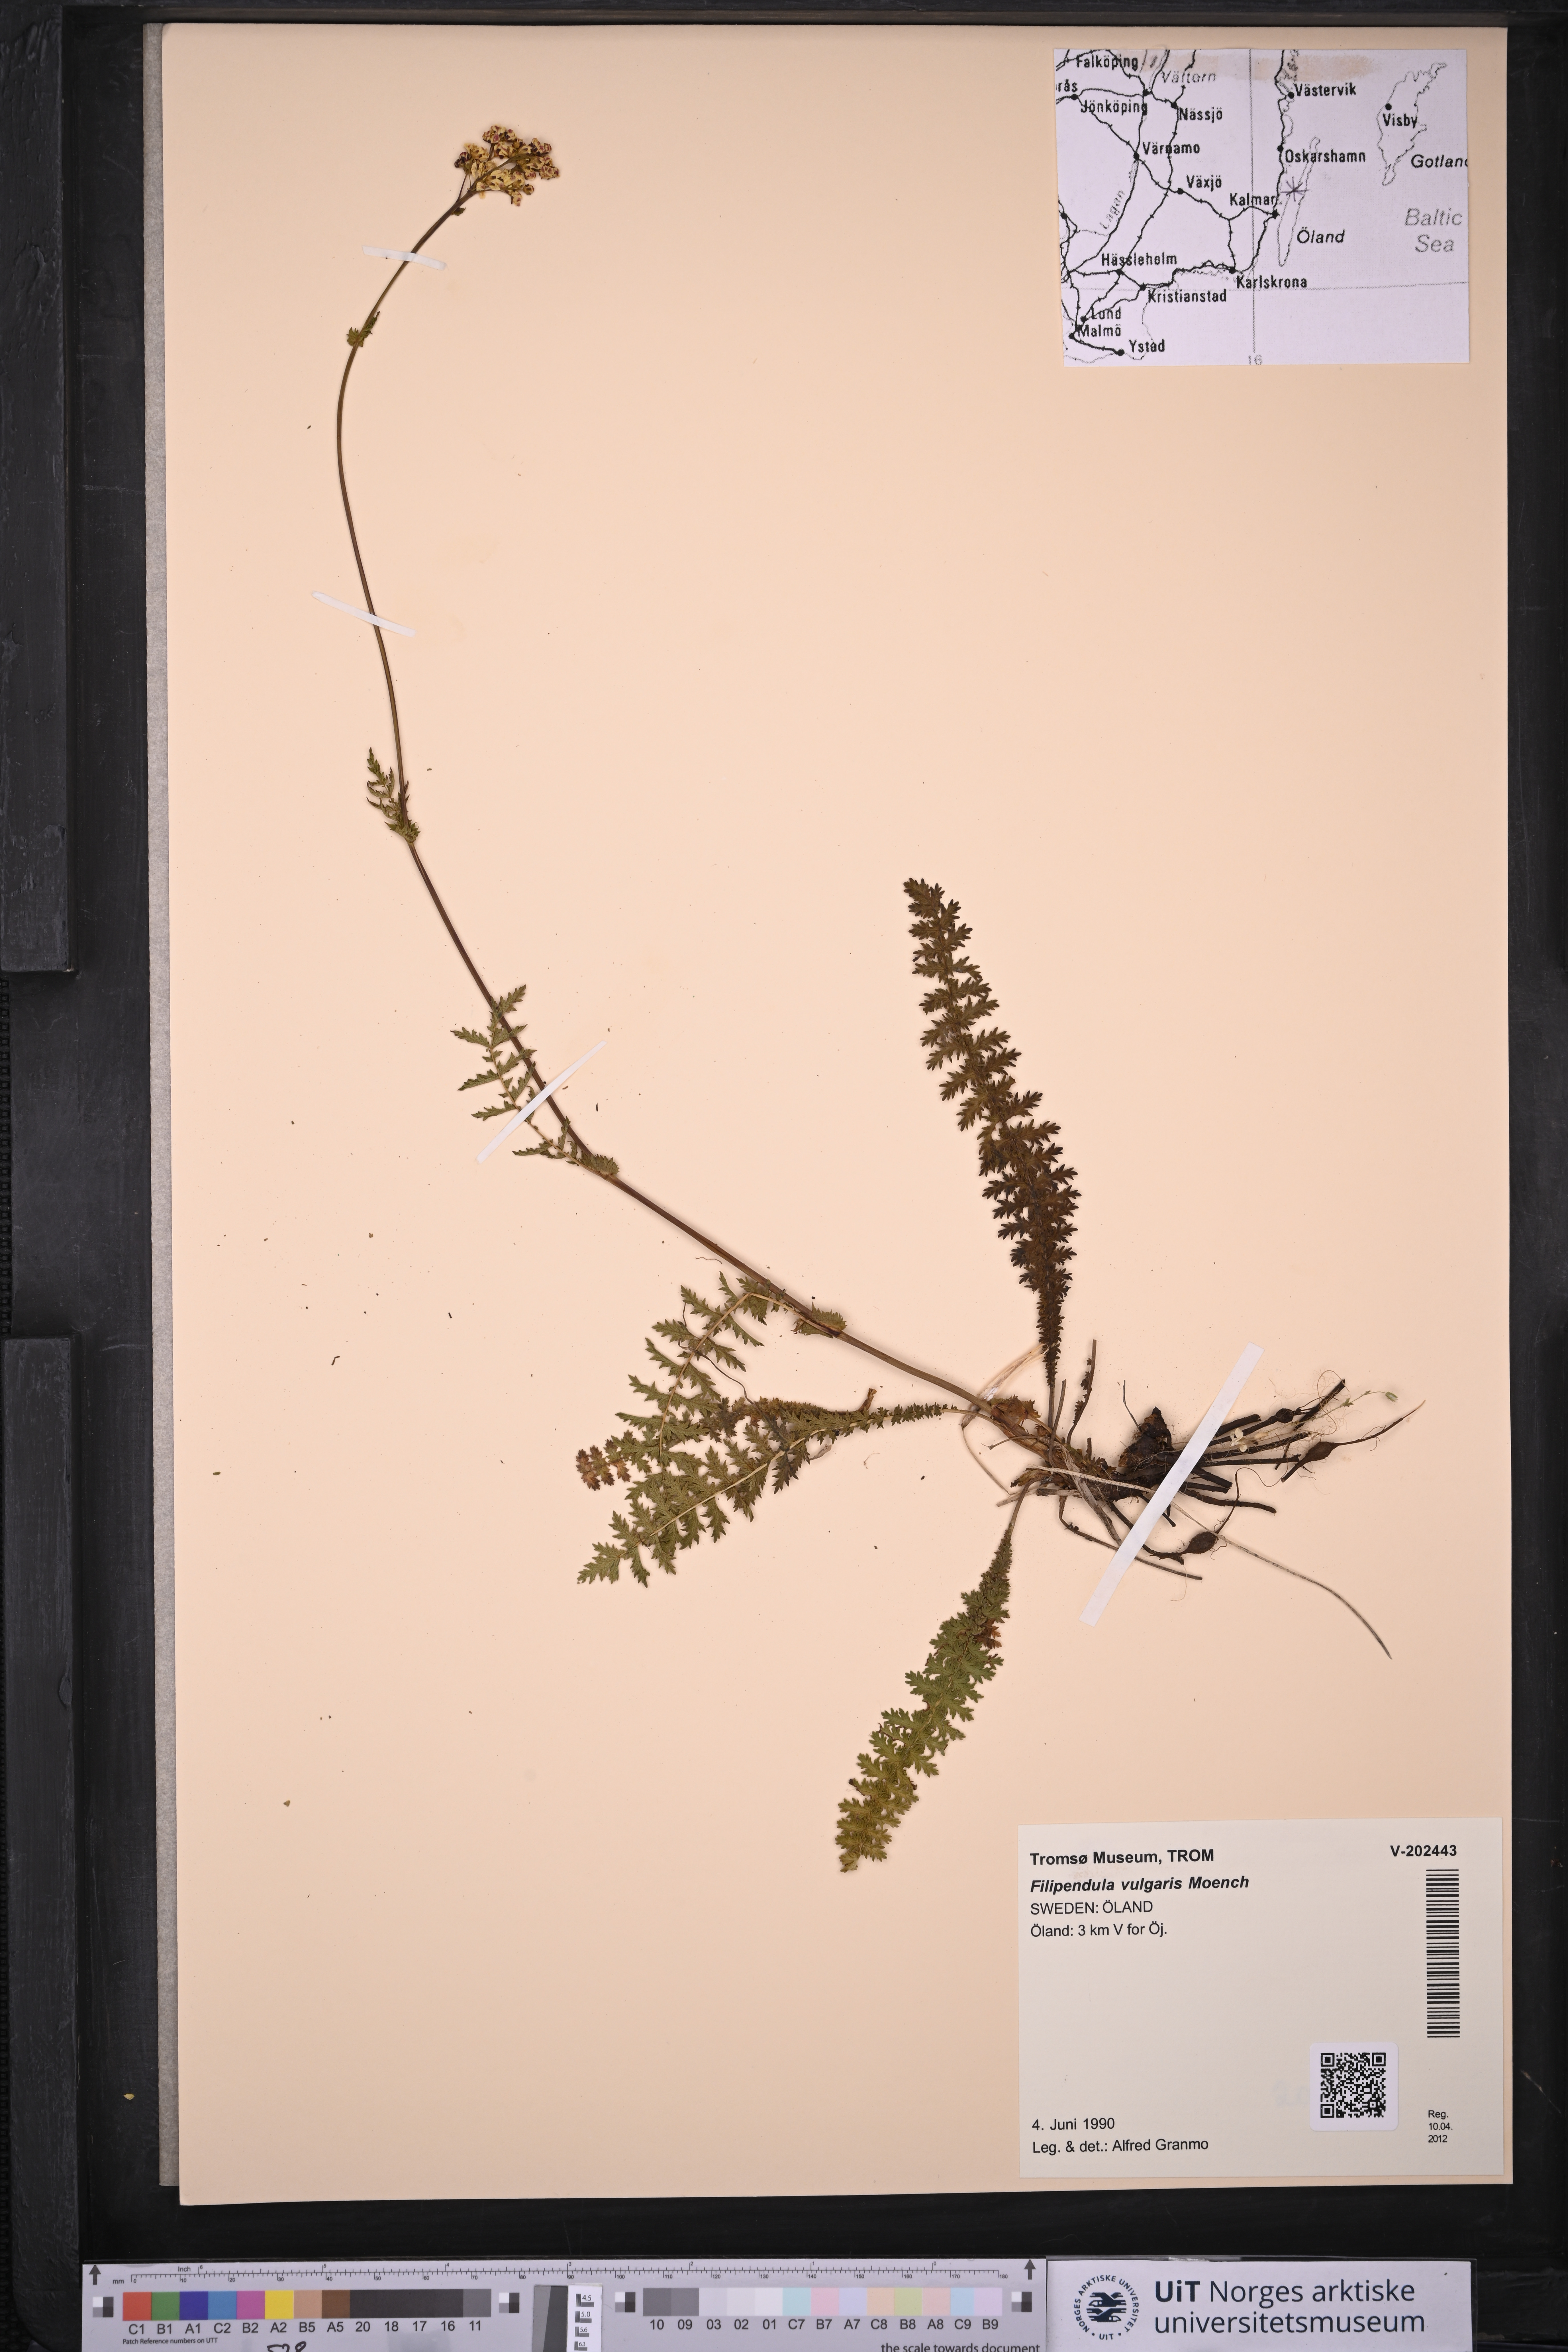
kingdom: Plantae
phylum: Tracheophyta
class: Magnoliopsida
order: Rosales
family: Rosaceae
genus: Filipendula
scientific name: Filipendula vulgaris
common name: Dropwort
